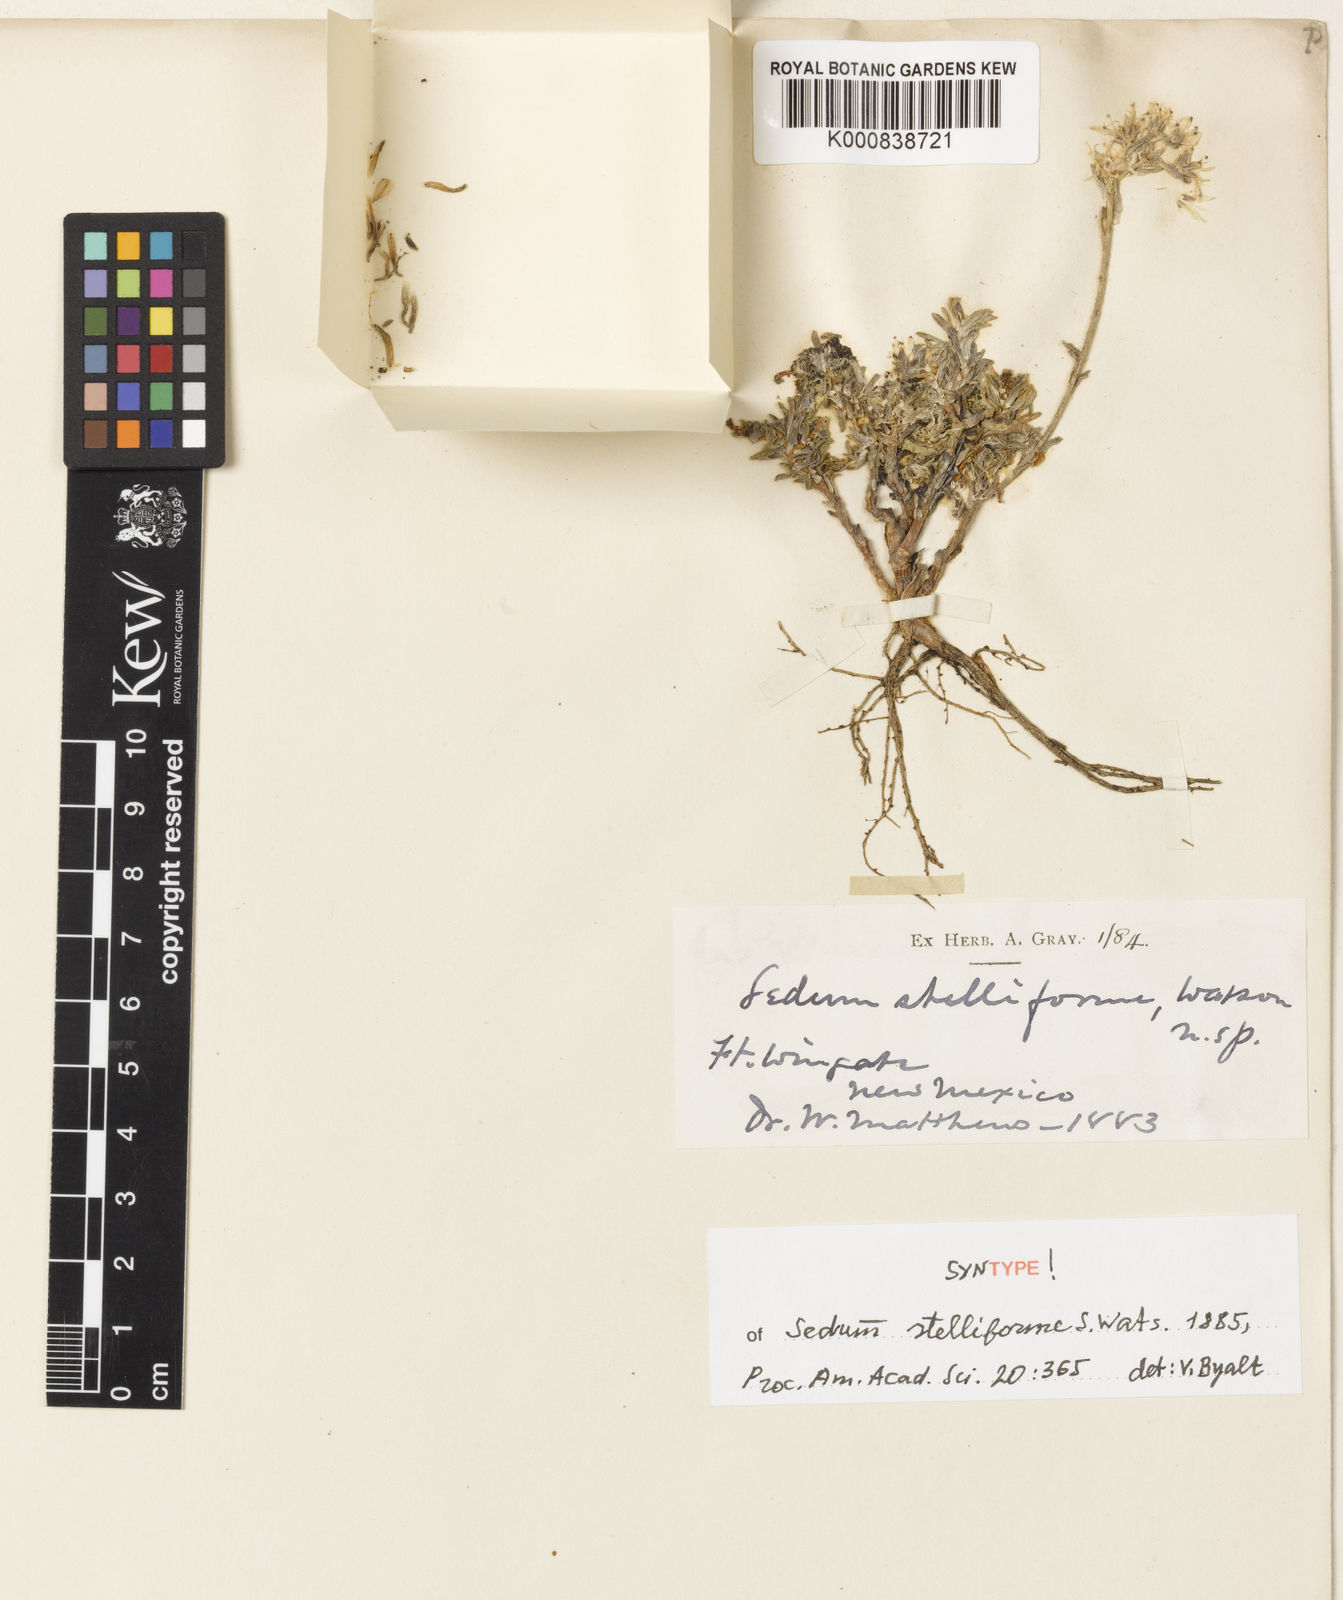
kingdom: Plantae
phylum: Tracheophyta
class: Magnoliopsida
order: Saxifragales
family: Crassulaceae
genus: Sedum
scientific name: Sedum stelliforme
